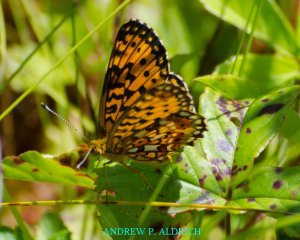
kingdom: Animalia
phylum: Arthropoda
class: Insecta
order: Lepidoptera
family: Nymphalidae
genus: Boloria
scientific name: Boloria selene
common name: Silver-bordered Fritillary
